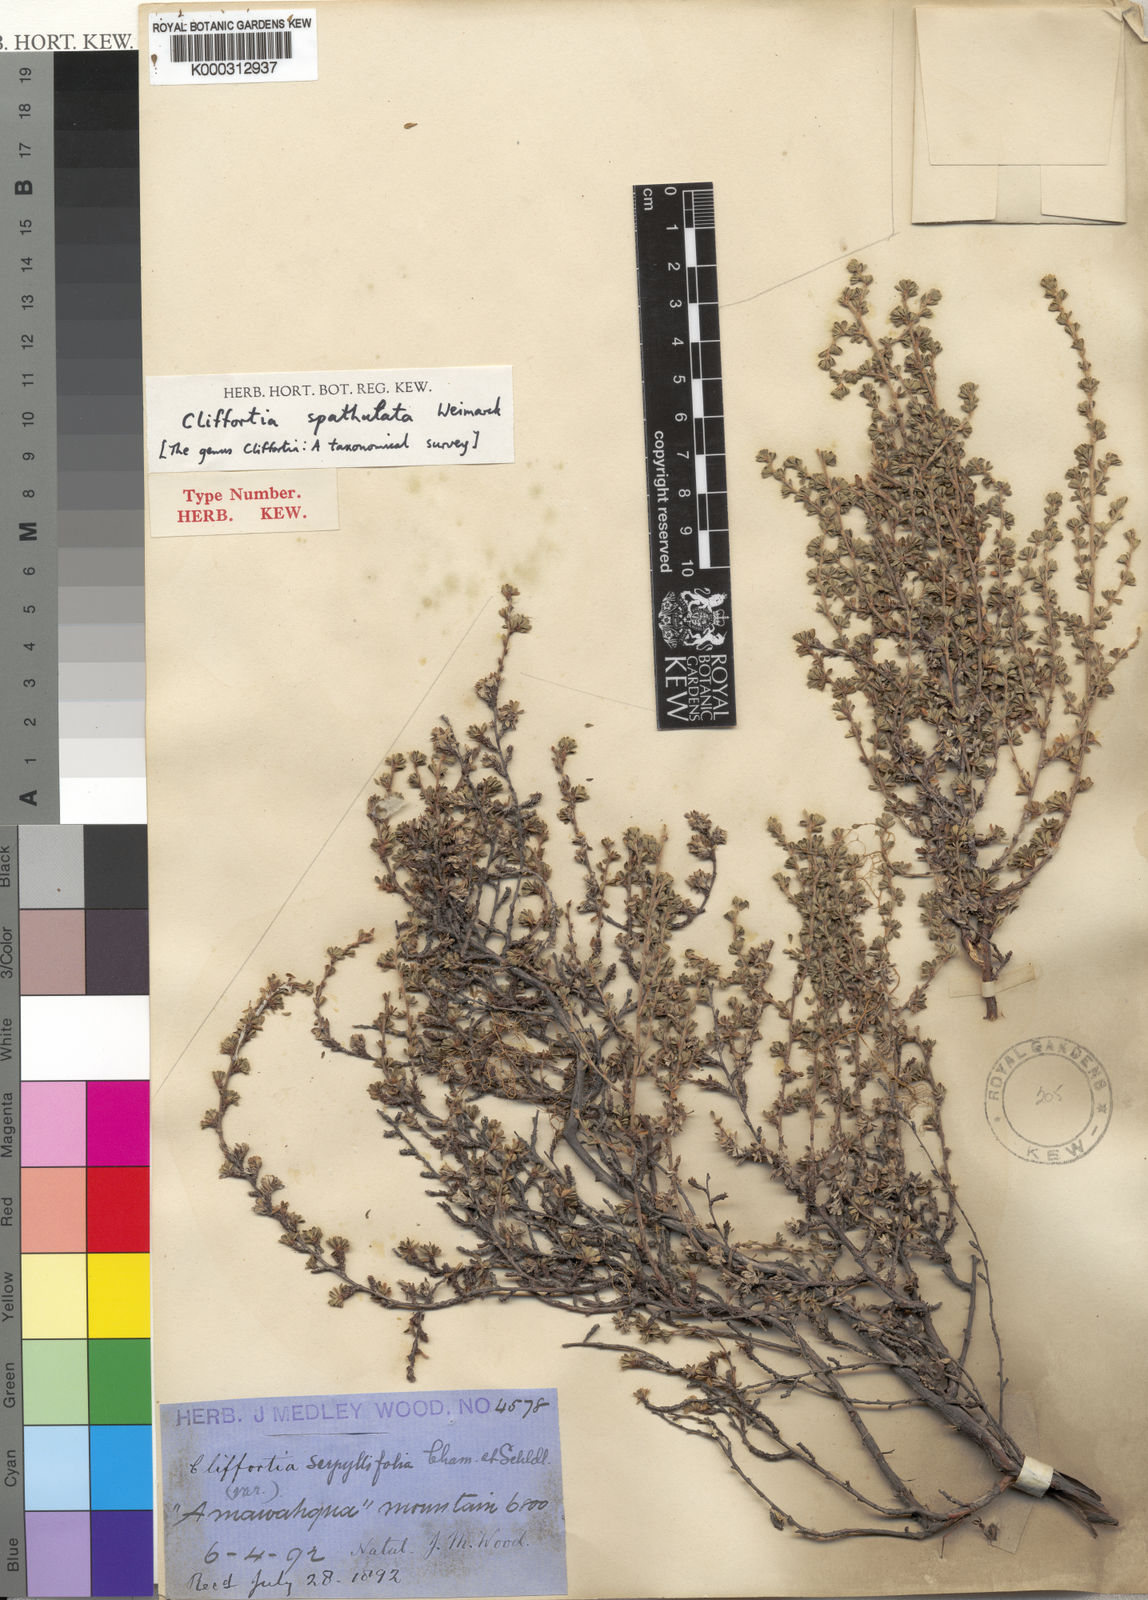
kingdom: Plantae
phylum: Tracheophyta
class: Magnoliopsida
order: Rosales
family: Rosaceae
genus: Cliffortia
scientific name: Cliffortia serpyllifolia
